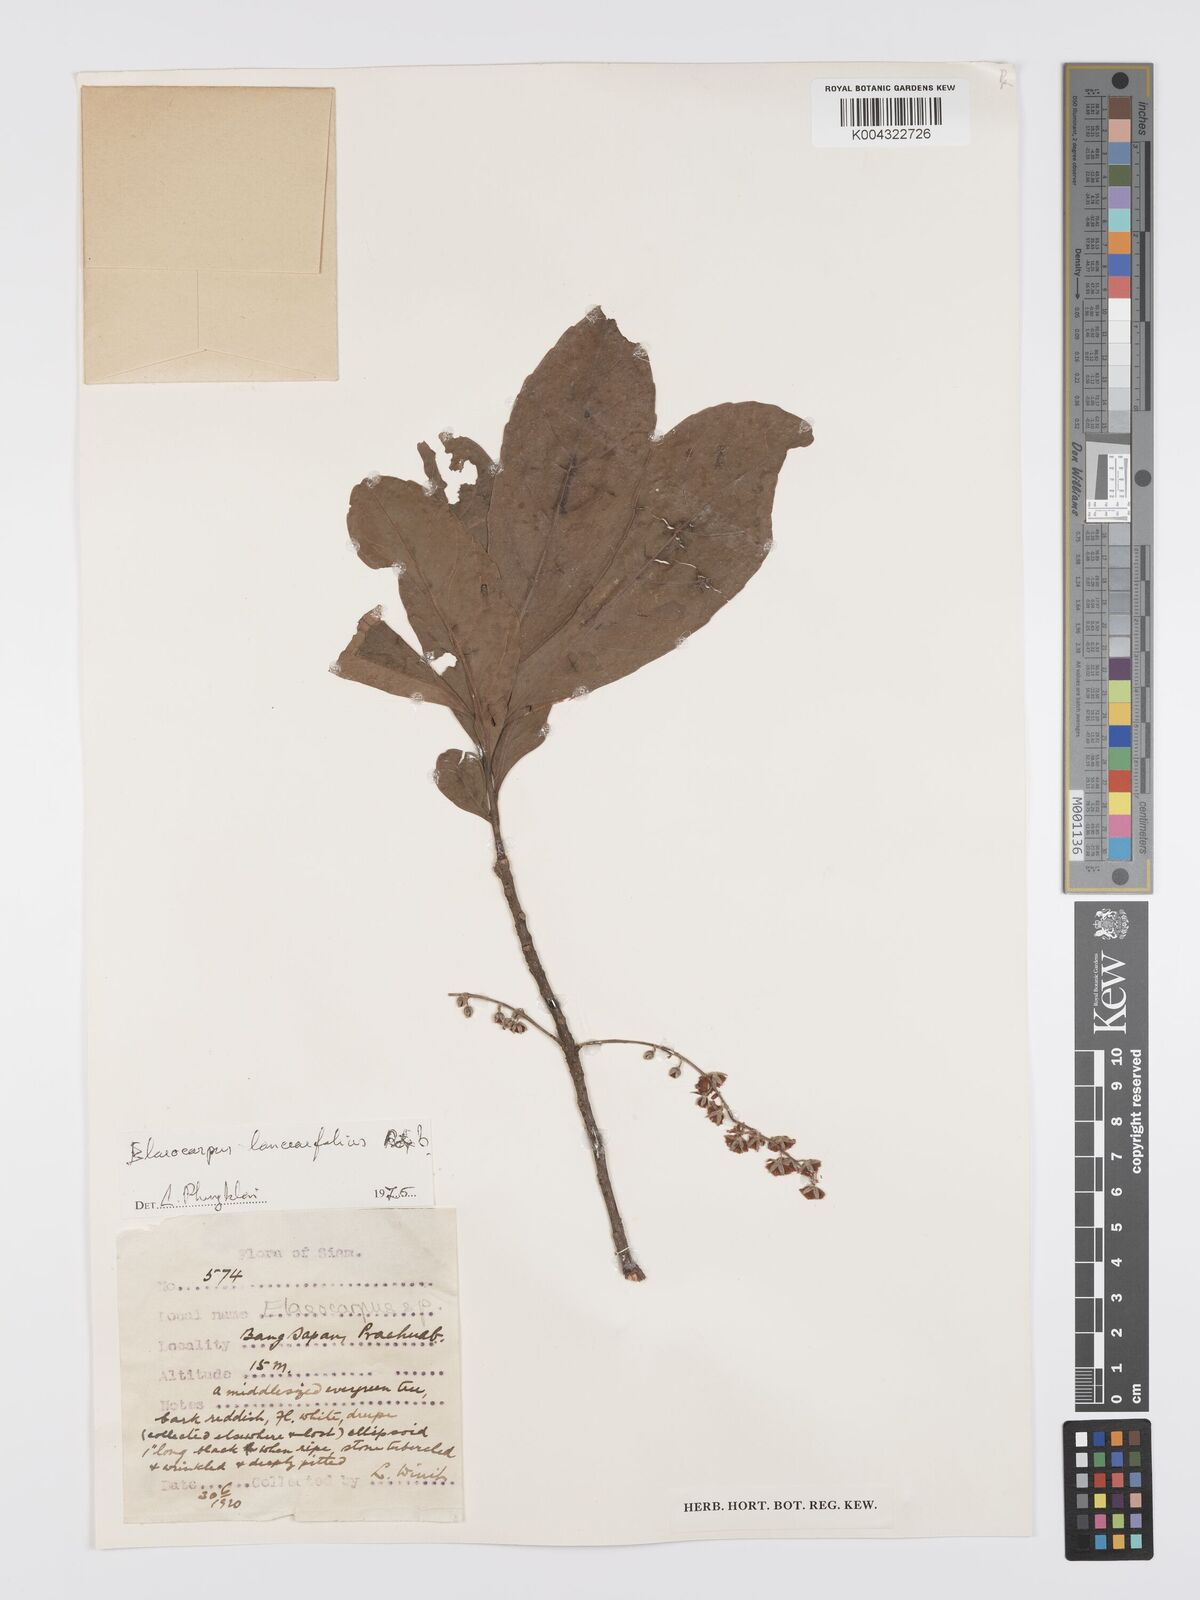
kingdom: Plantae
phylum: Tracheophyta
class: Magnoliopsida
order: Oxalidales
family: Elaeocarpaceae
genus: Elaeocarpus
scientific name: Elaeocarpus lanceifolius
